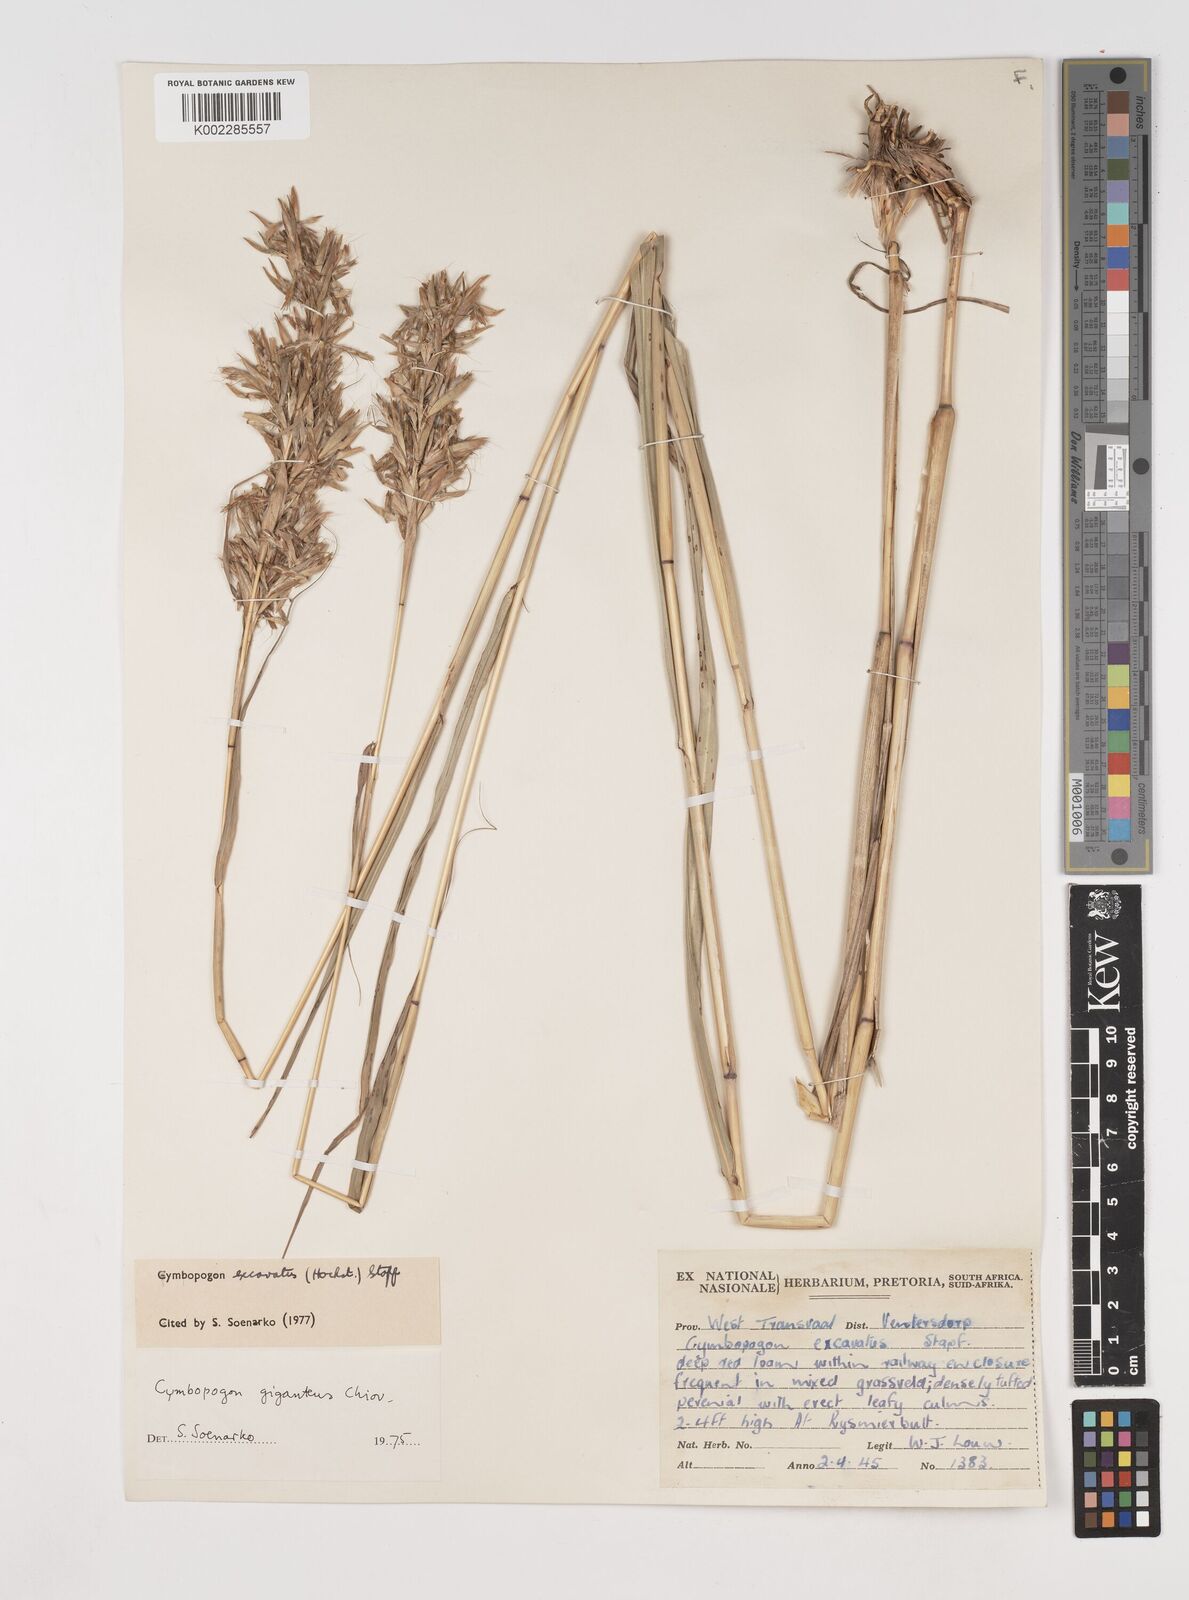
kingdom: Plantae
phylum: Tracheophyta
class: Liliopsida
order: Poales
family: Poaceae
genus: Cymbopogon
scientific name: Cymbopogon caesius
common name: Kachi grass
